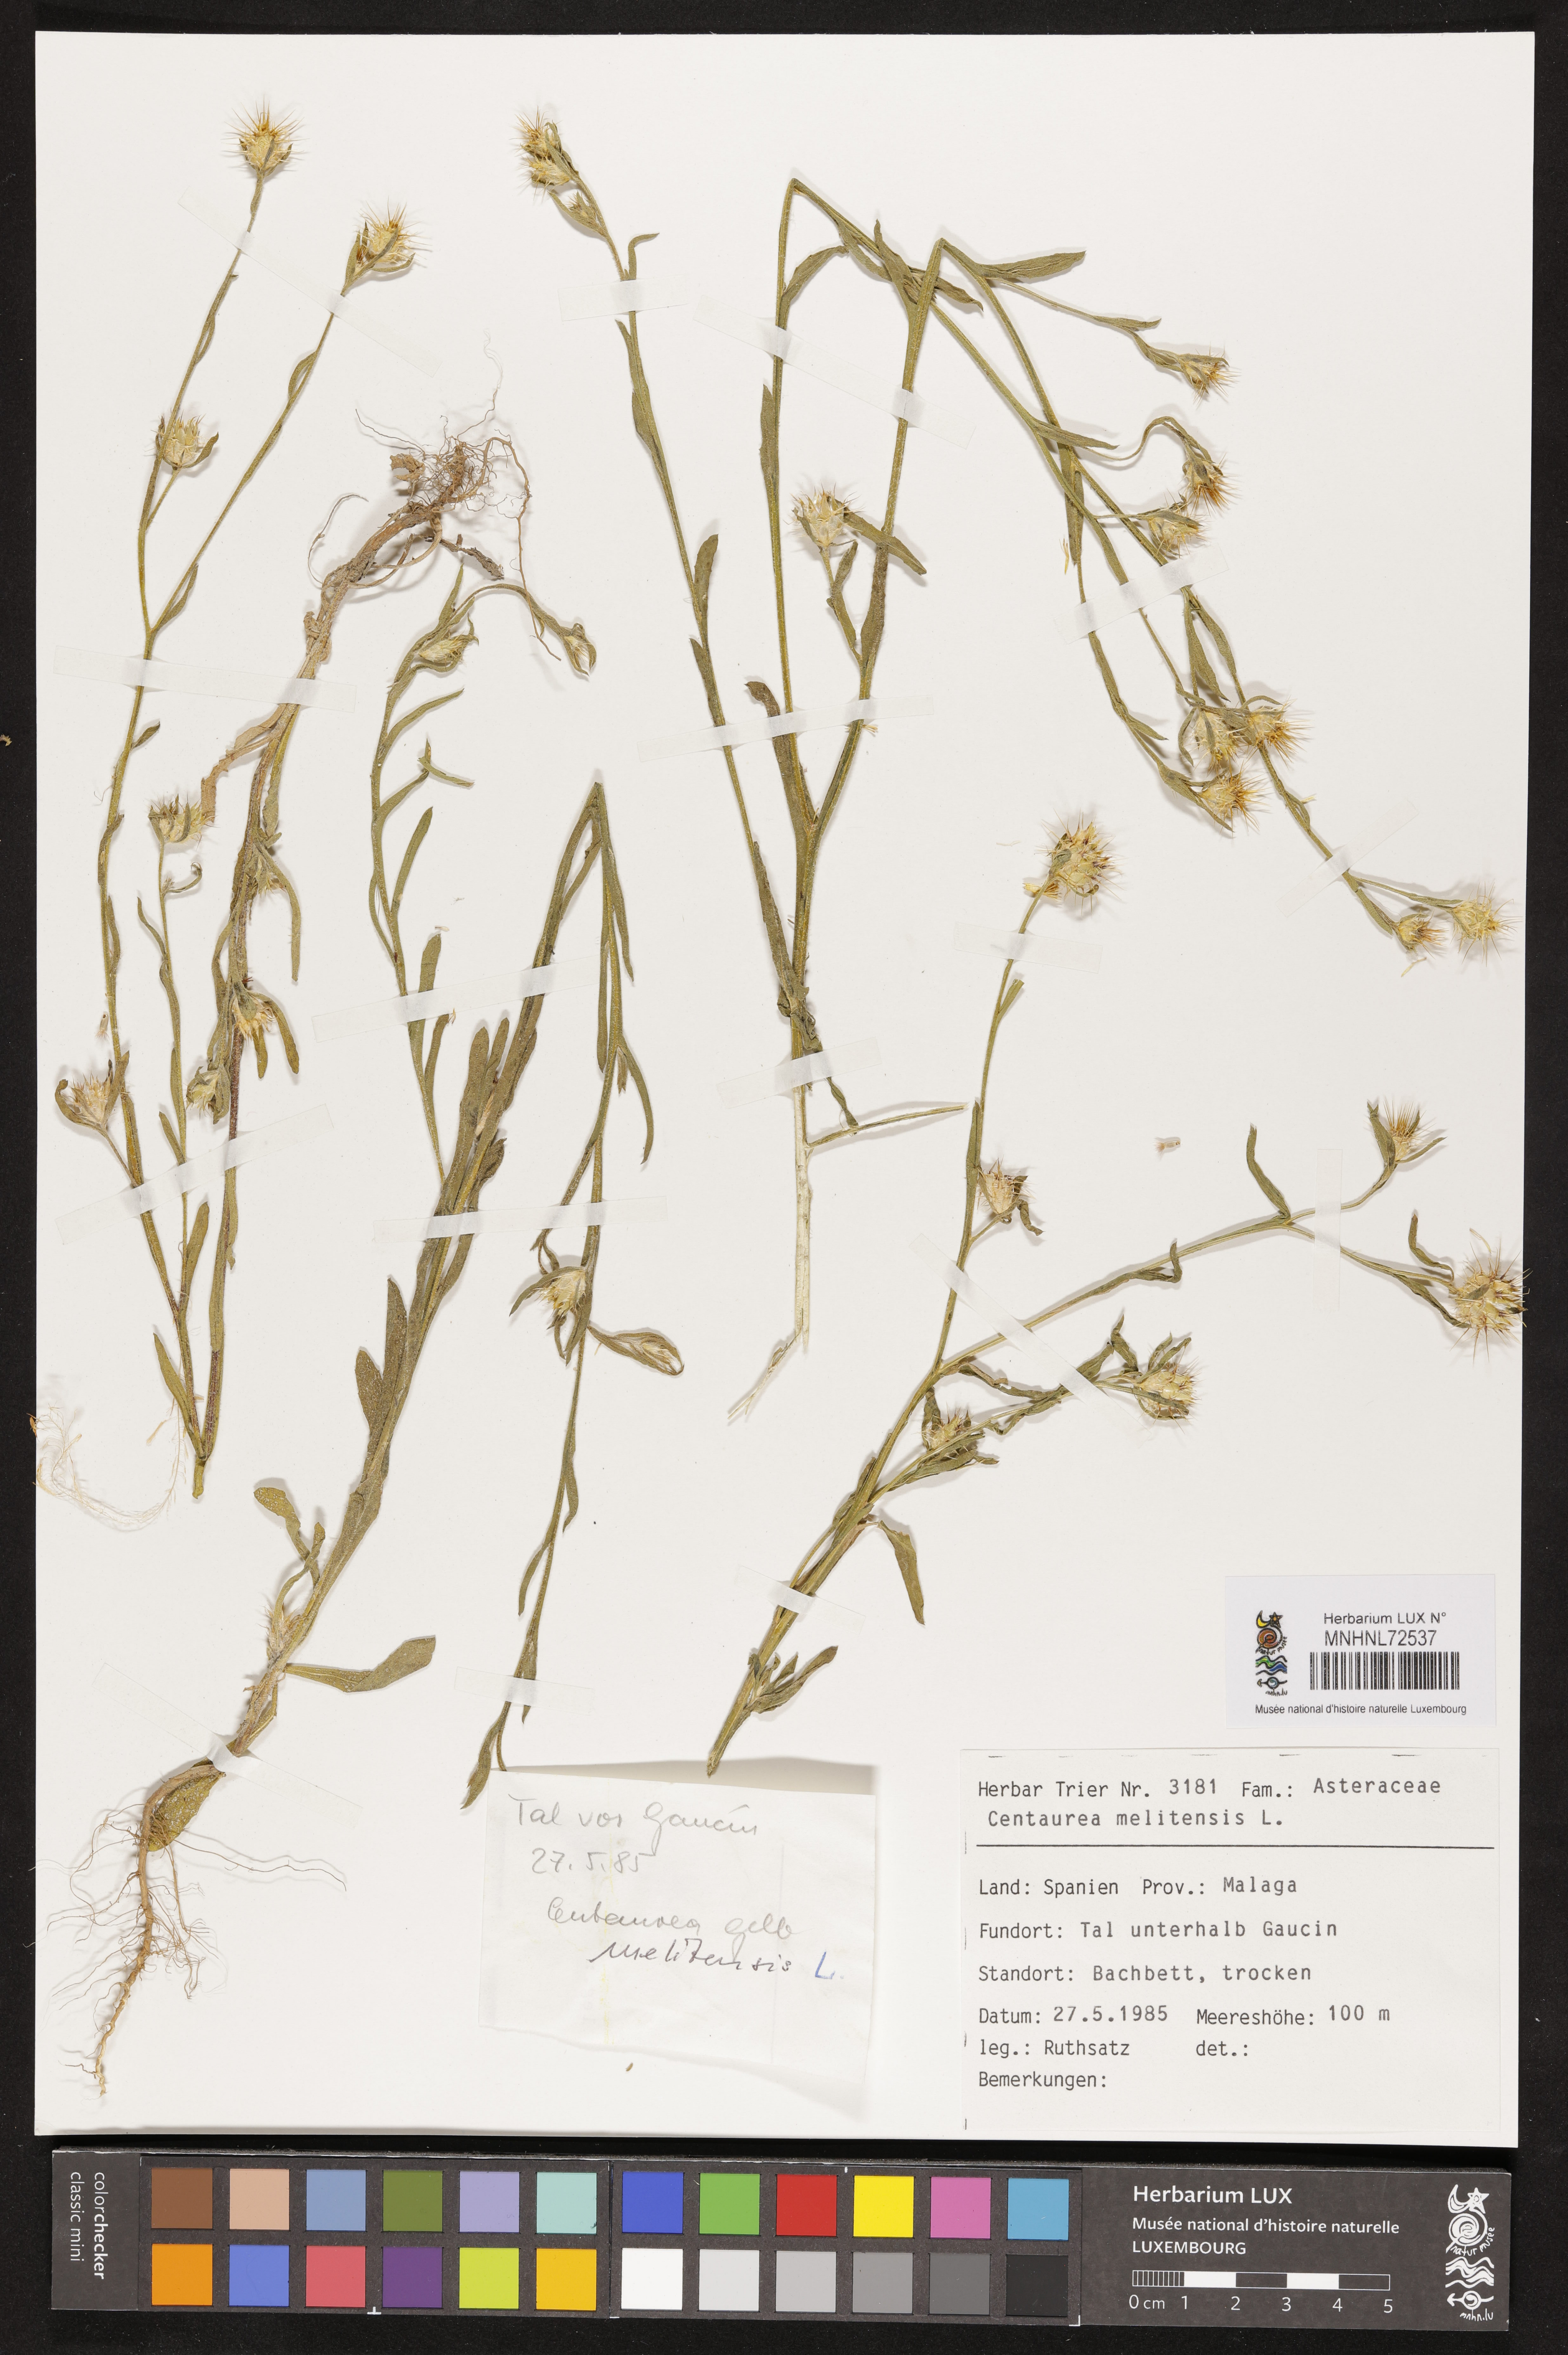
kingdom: Plantae
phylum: Tracheophyta
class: Magnoliopsida
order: Asterales
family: Asteraceae
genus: Centaurea
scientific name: Centaurea melitensis
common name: Maltese star-thistle
